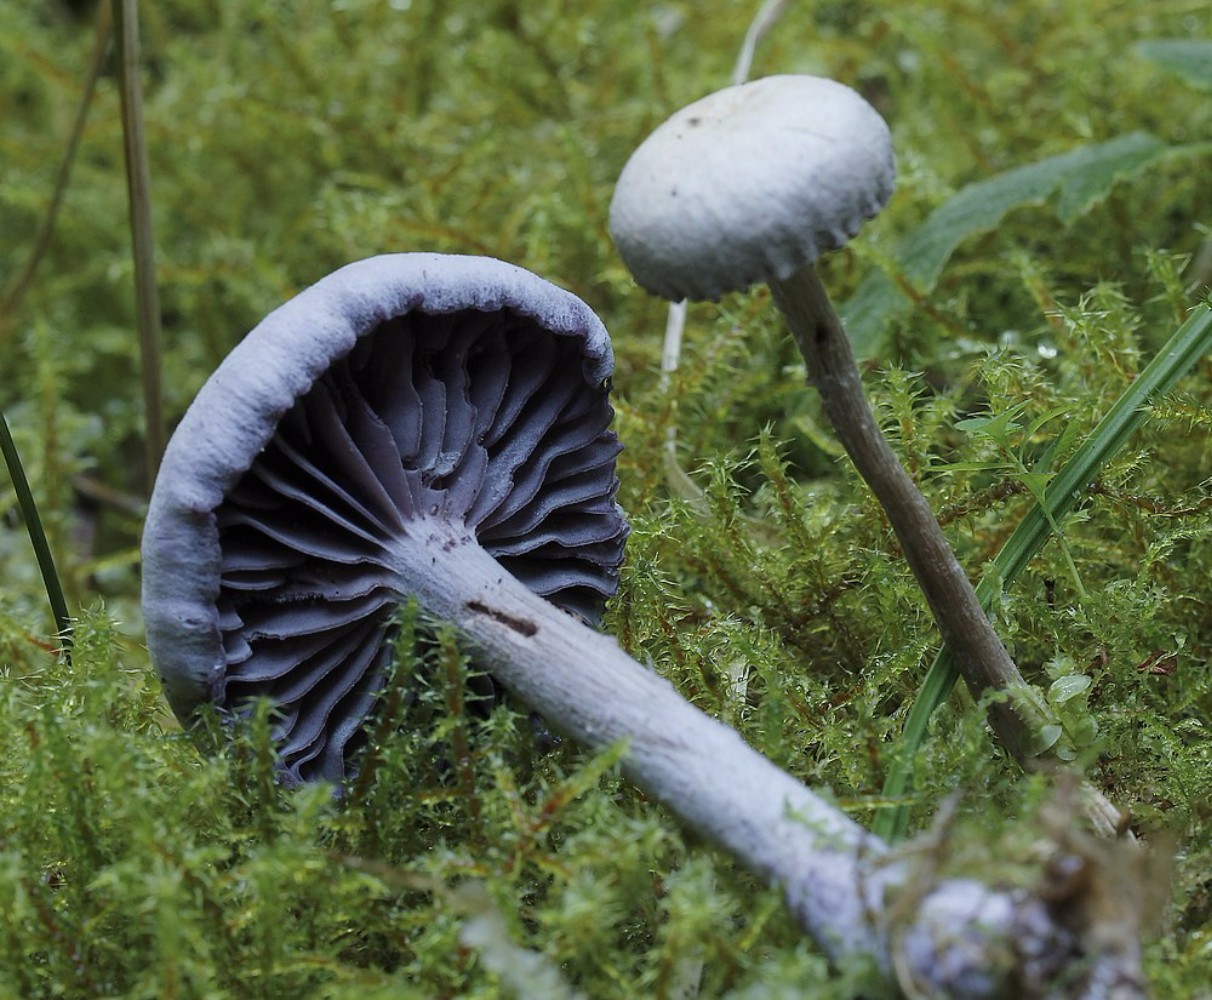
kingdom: Fungi
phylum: Basidiomycota
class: Agaricomycetes
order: Agaricales
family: Hydnangiaceae
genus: Laccaria
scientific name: Laccaria amethystina
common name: violet ametysthat
